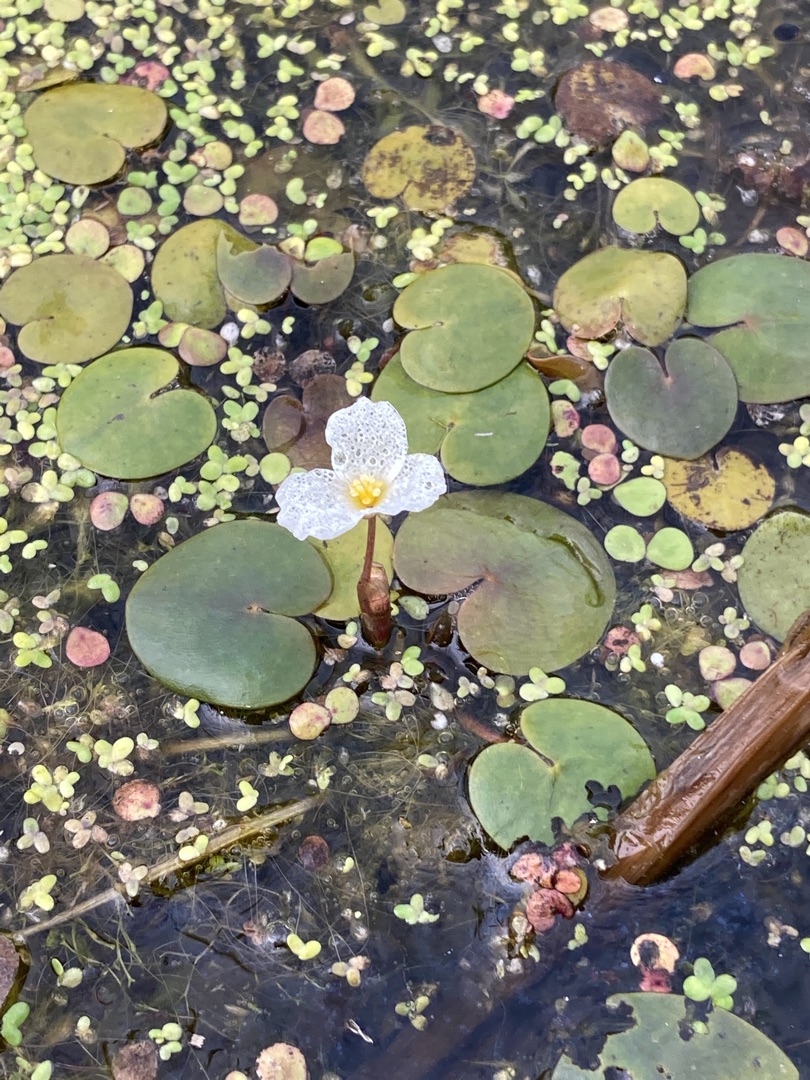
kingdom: Plantae
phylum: Tracheophyta
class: Liliopsida
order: Alismatales
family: Hydrocharitaceae
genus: Hydrocharis
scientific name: Hydrocharis morsus-ranae
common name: Frøbid
